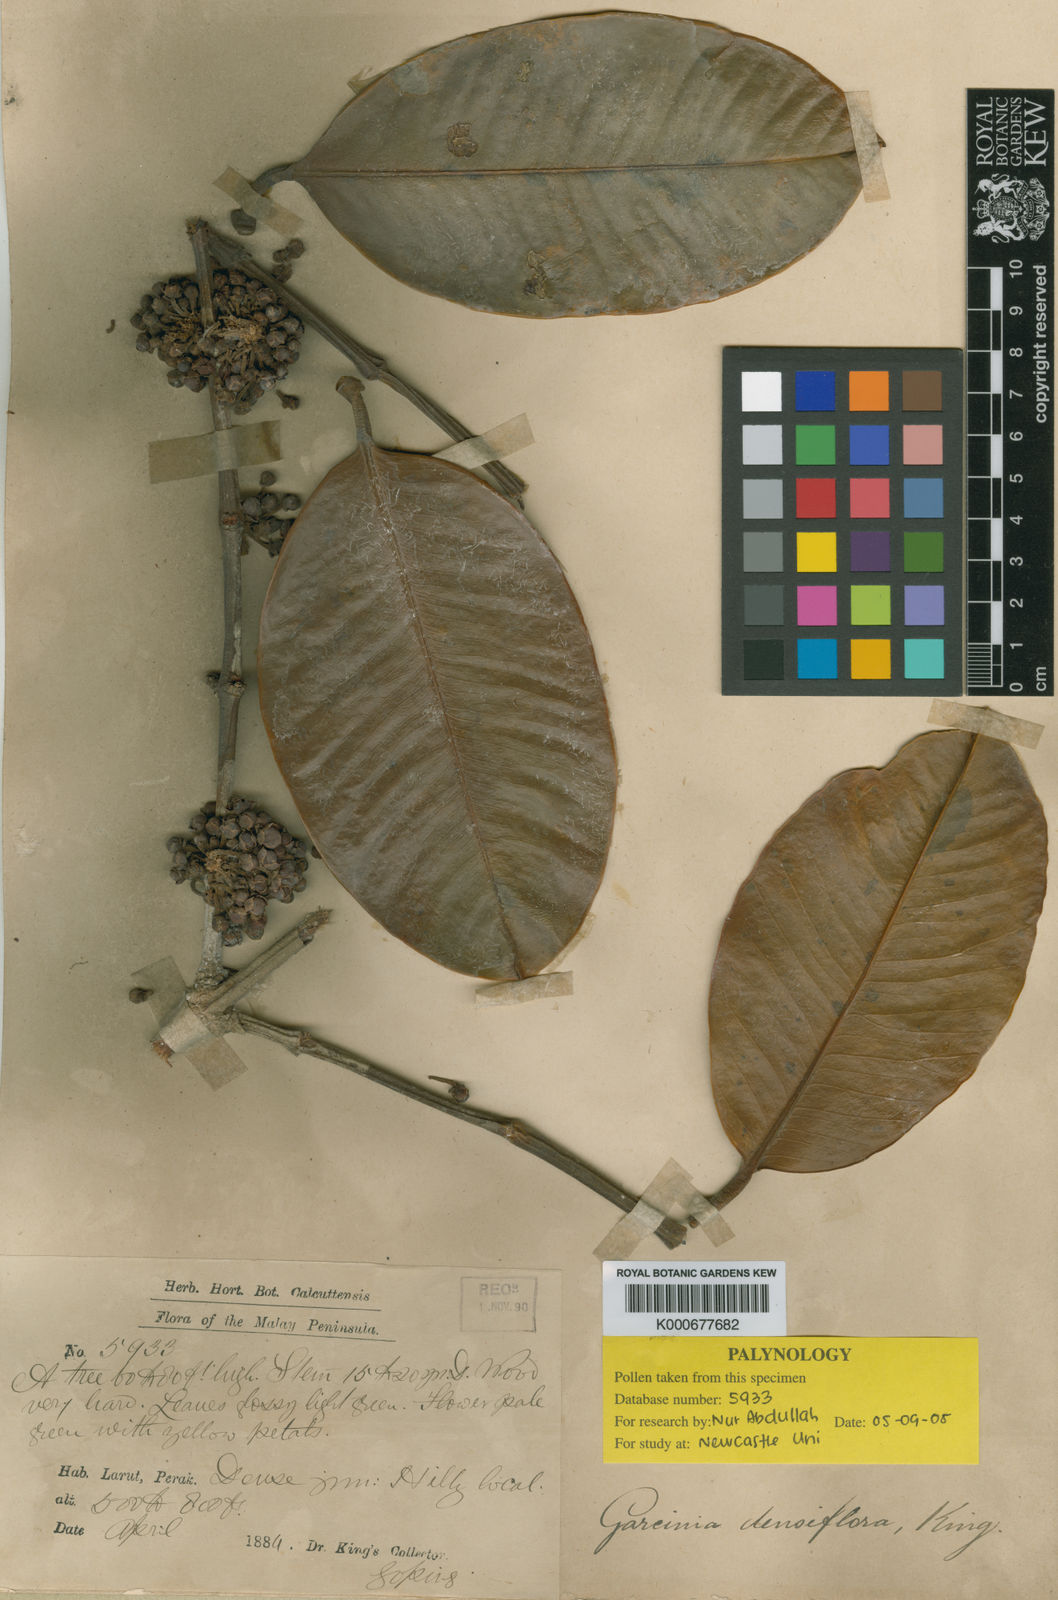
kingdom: Plantae
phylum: Tracheophyta
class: Magnoliopsida
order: Malpighiales
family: Clusiaceae
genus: Garcinia
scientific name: Garcinia pyrifera
